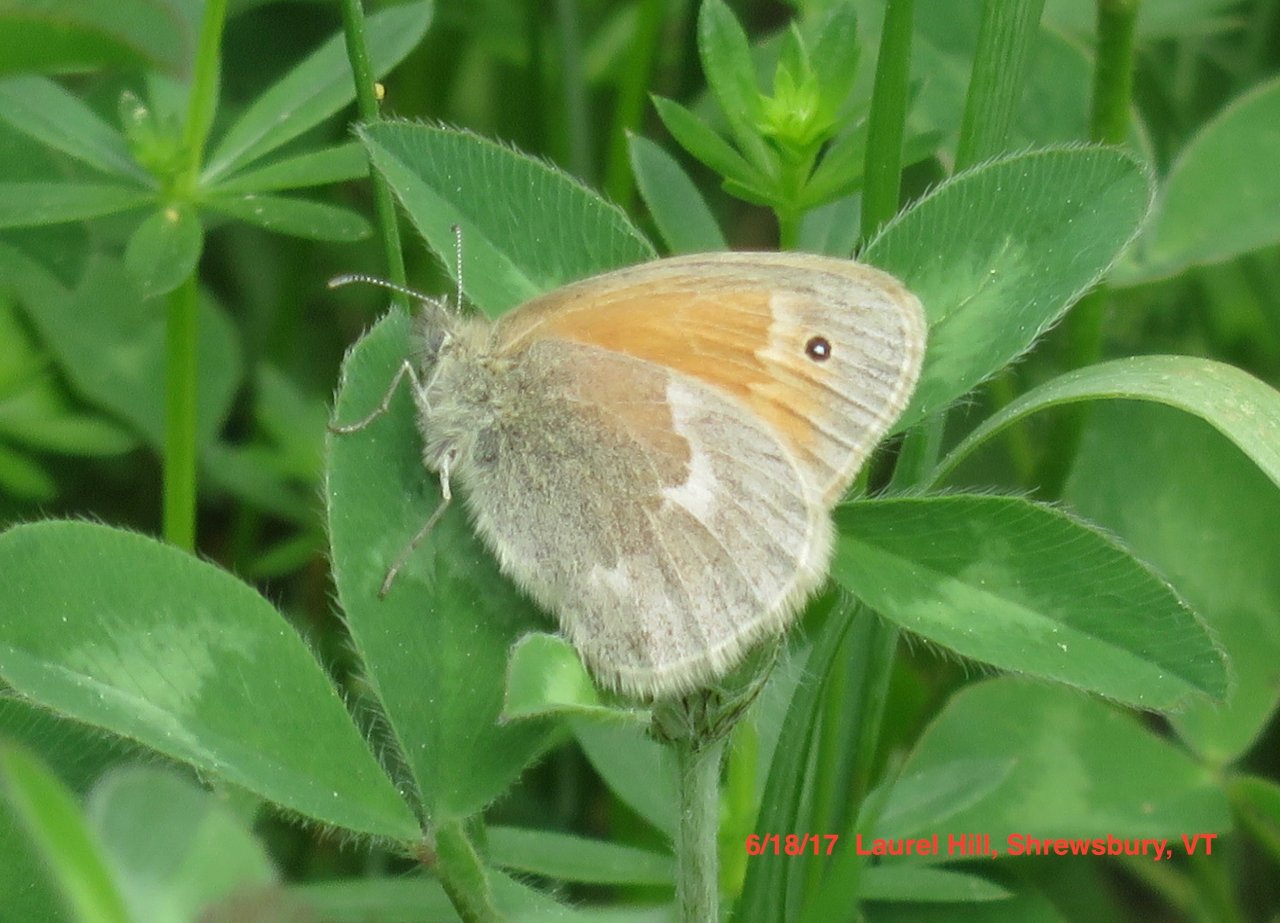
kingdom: Animalia
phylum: Arthropoda
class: Insecta
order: Lepidoptera
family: Nymphalidae
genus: Coenonympha
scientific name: Coenonympha tullia
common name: Large Heath
